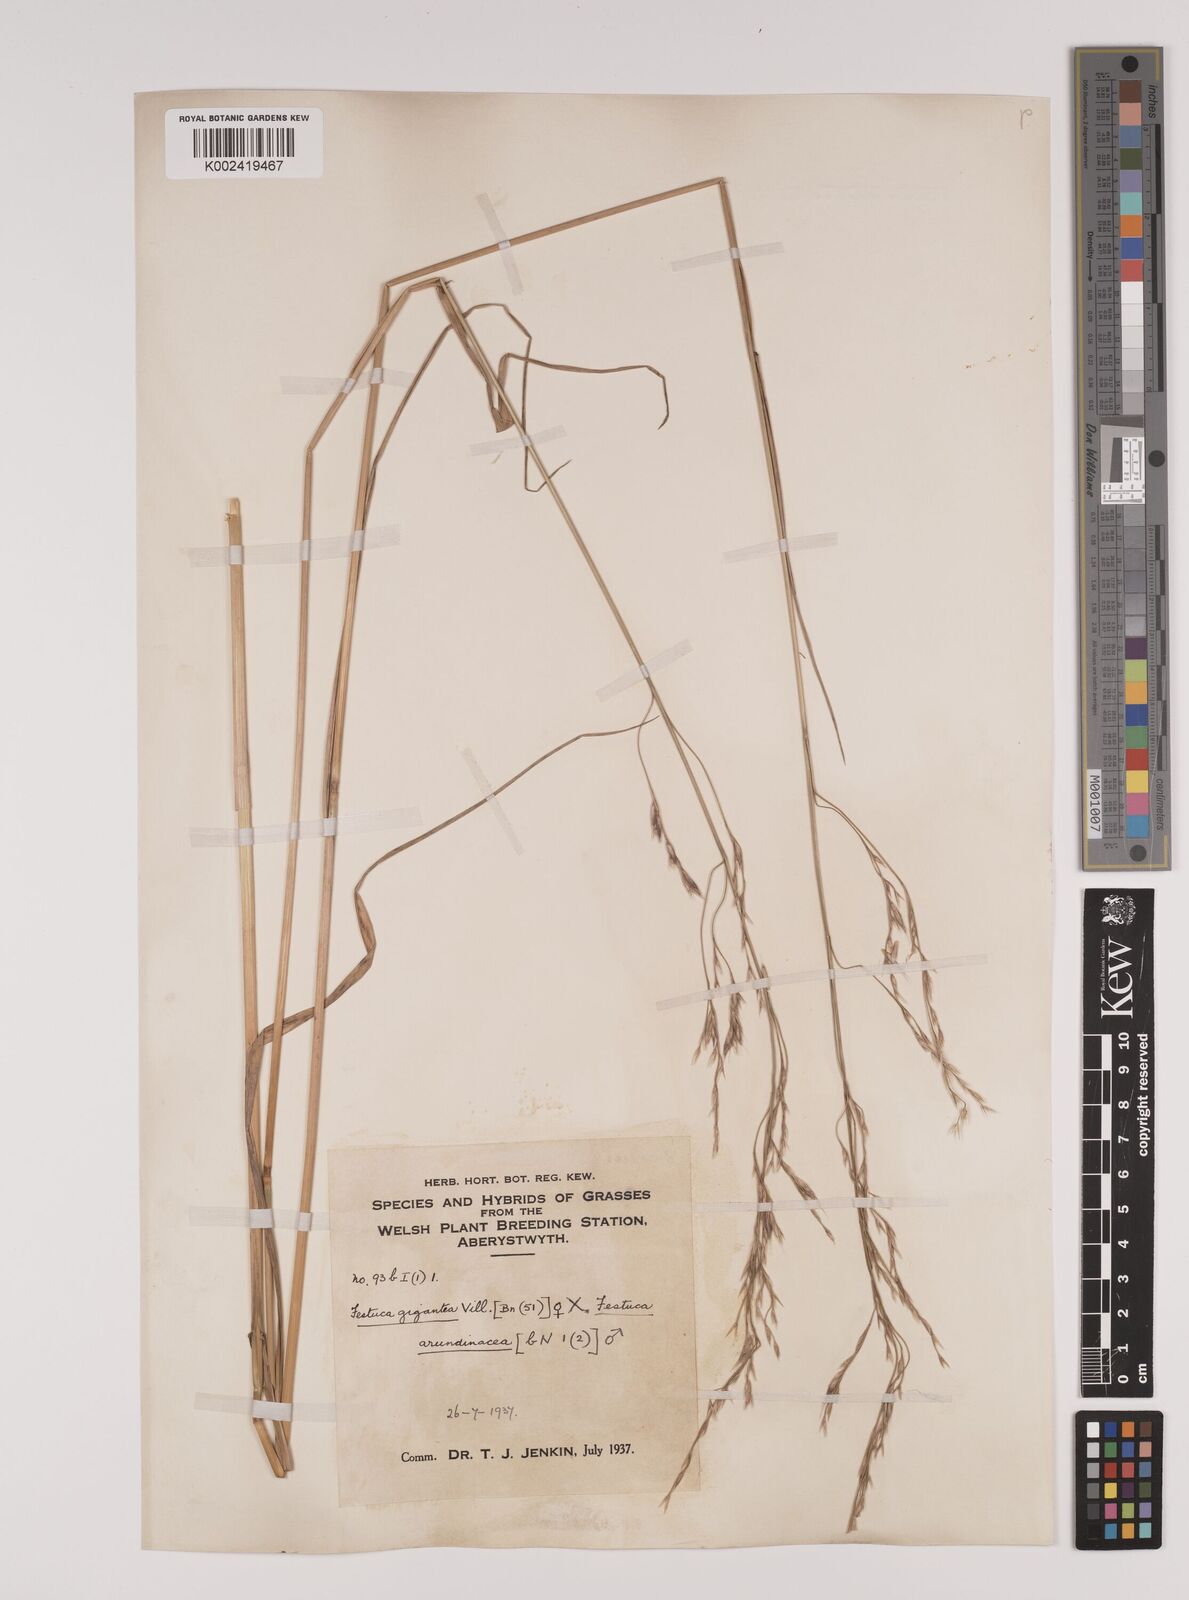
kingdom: Plantae
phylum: Tracheophyta
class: Liliopsida
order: Poales
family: Poaceae
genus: Lolium
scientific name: Lolium giganteum
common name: Giant fescue
